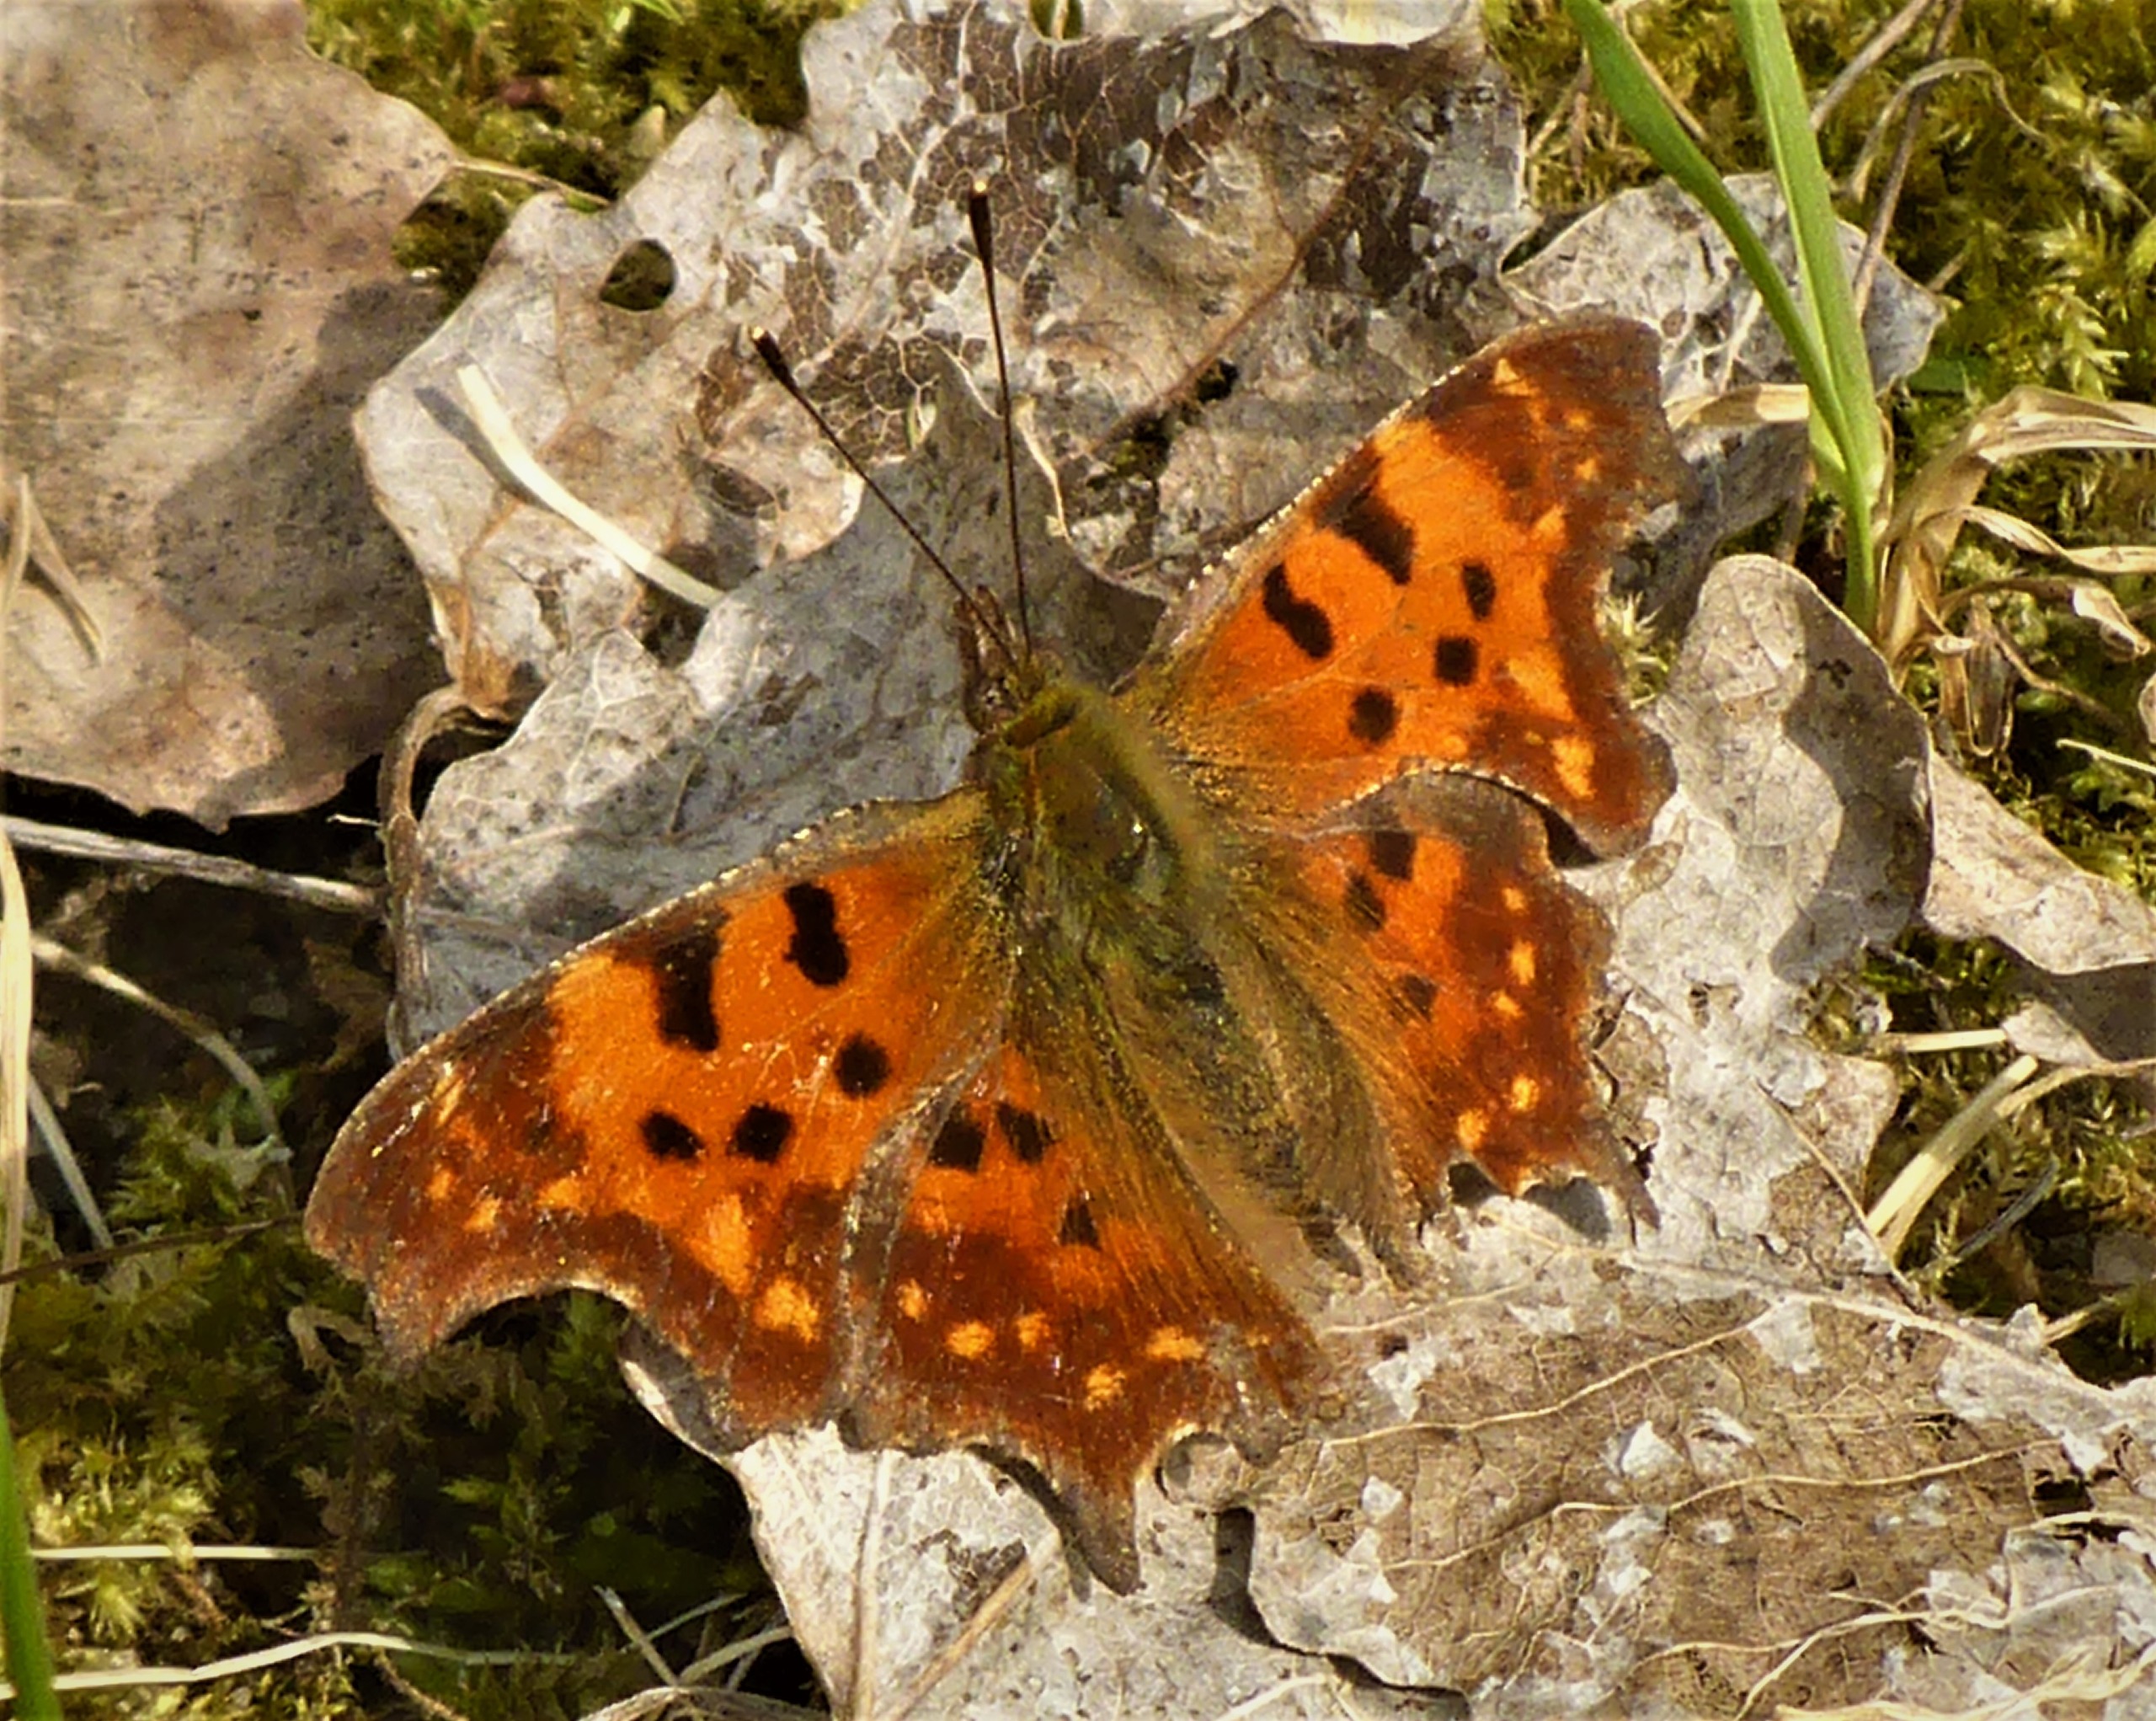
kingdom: Animalia
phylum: Arthropoda
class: Insecta
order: Lepidoptera
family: Nymphalidae
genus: Polygonia
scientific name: Polygonia c-album
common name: Det hvide C
